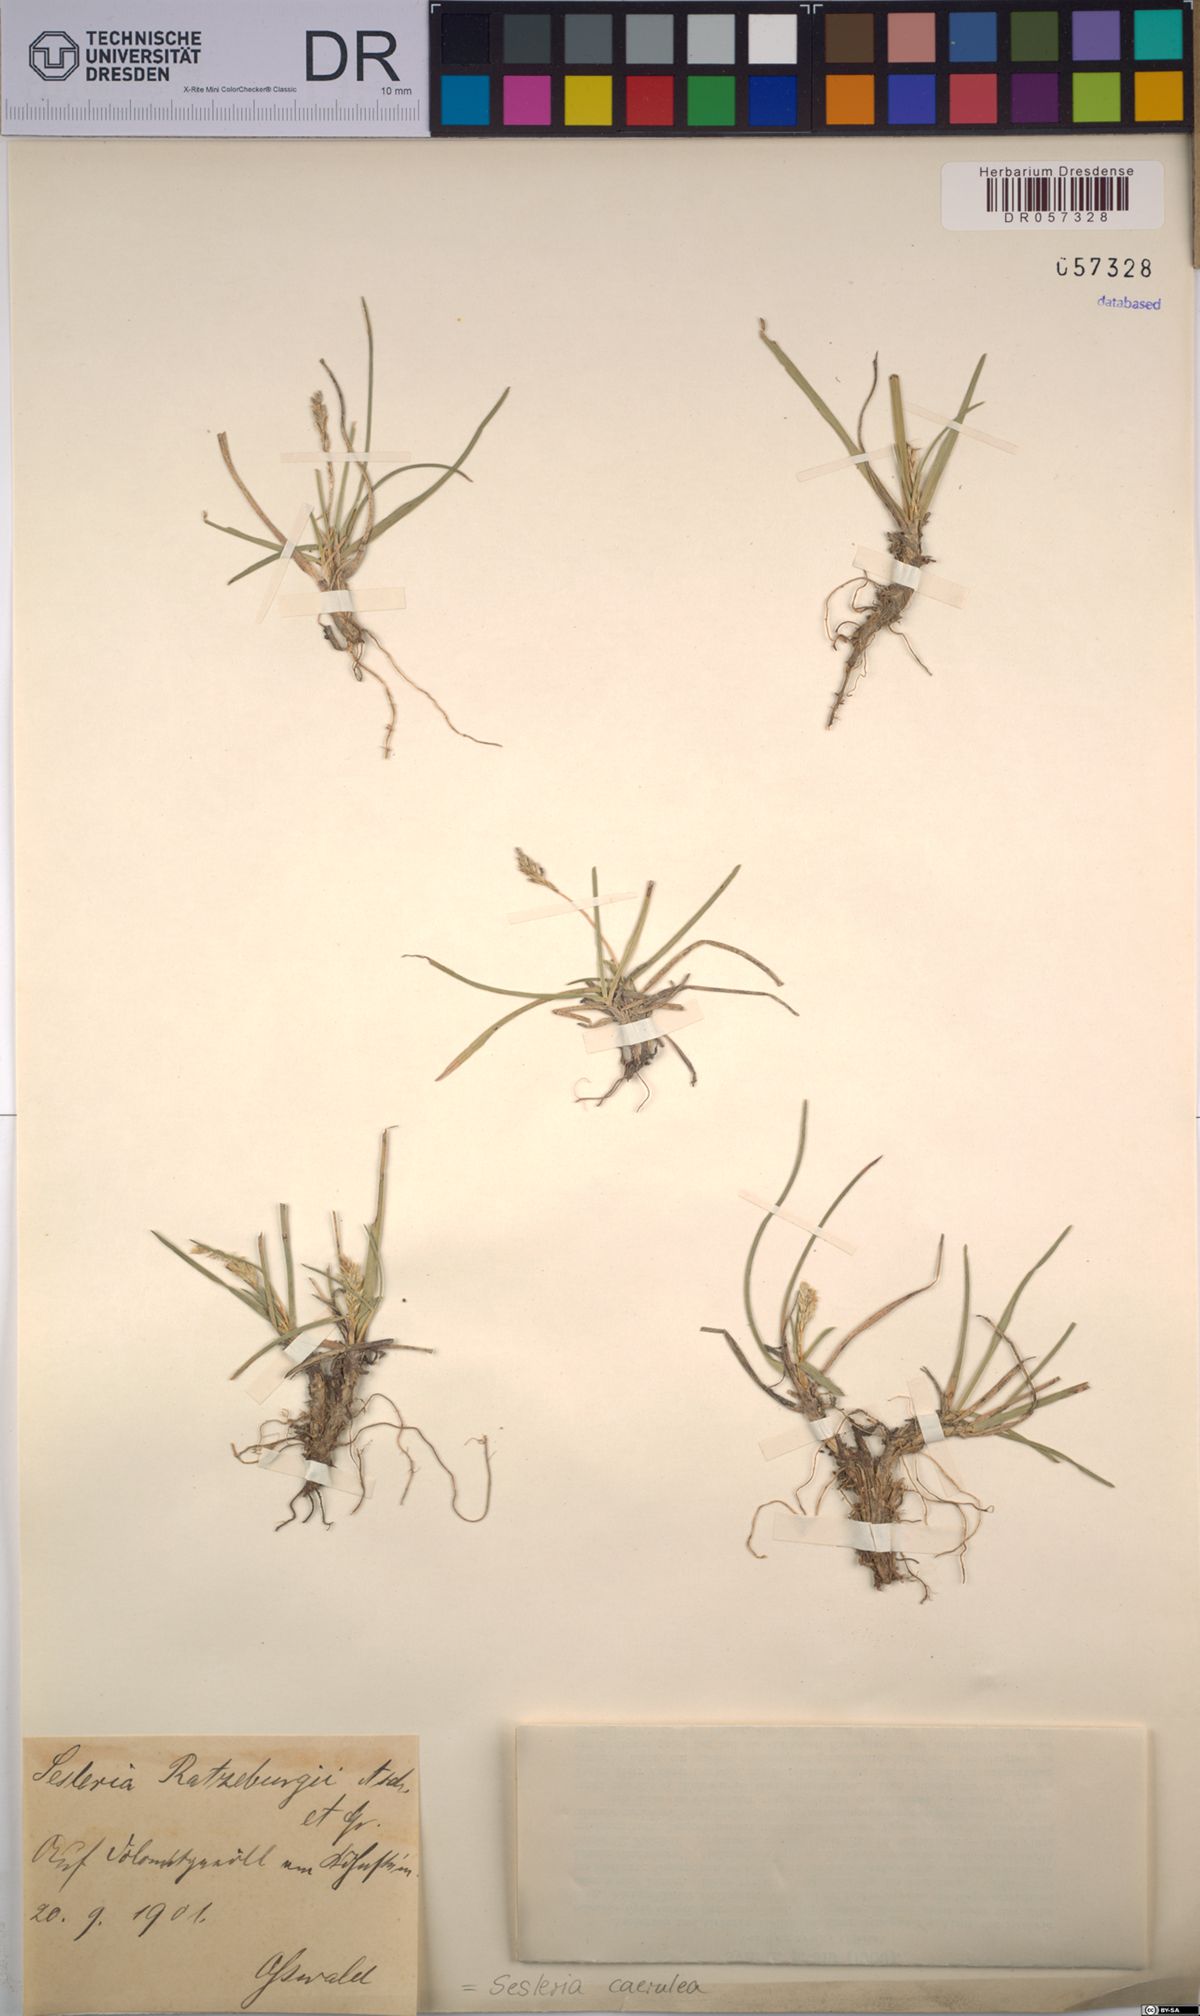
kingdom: Plantae
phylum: Tracheophyta
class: Liliopsida
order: Poales
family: Poaceae
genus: Sesleria
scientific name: Sesleria caerulea
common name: Blue moor-grass
